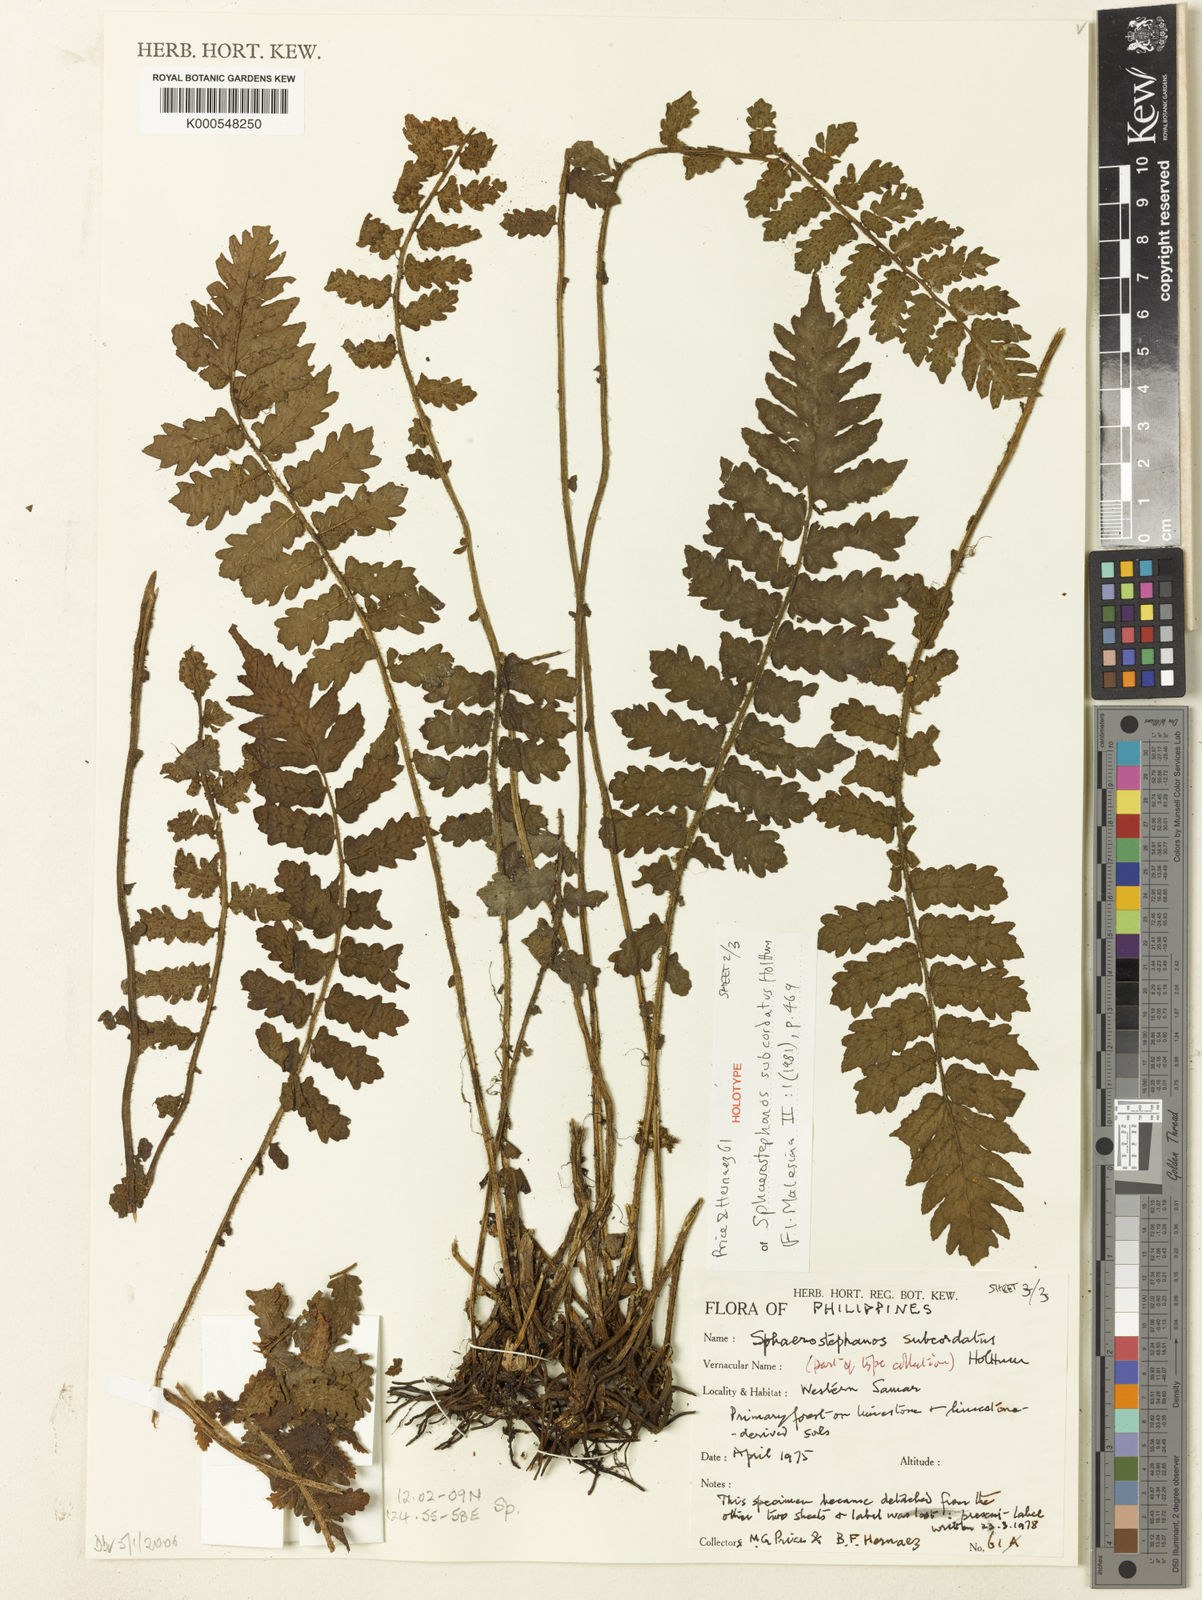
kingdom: Plantae
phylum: Tracheophyta
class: Polypodiopsida
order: Polypodiales
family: Thelypteridaceae
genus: Sphaerostephanos
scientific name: Sphaerostephanos subcordatus
